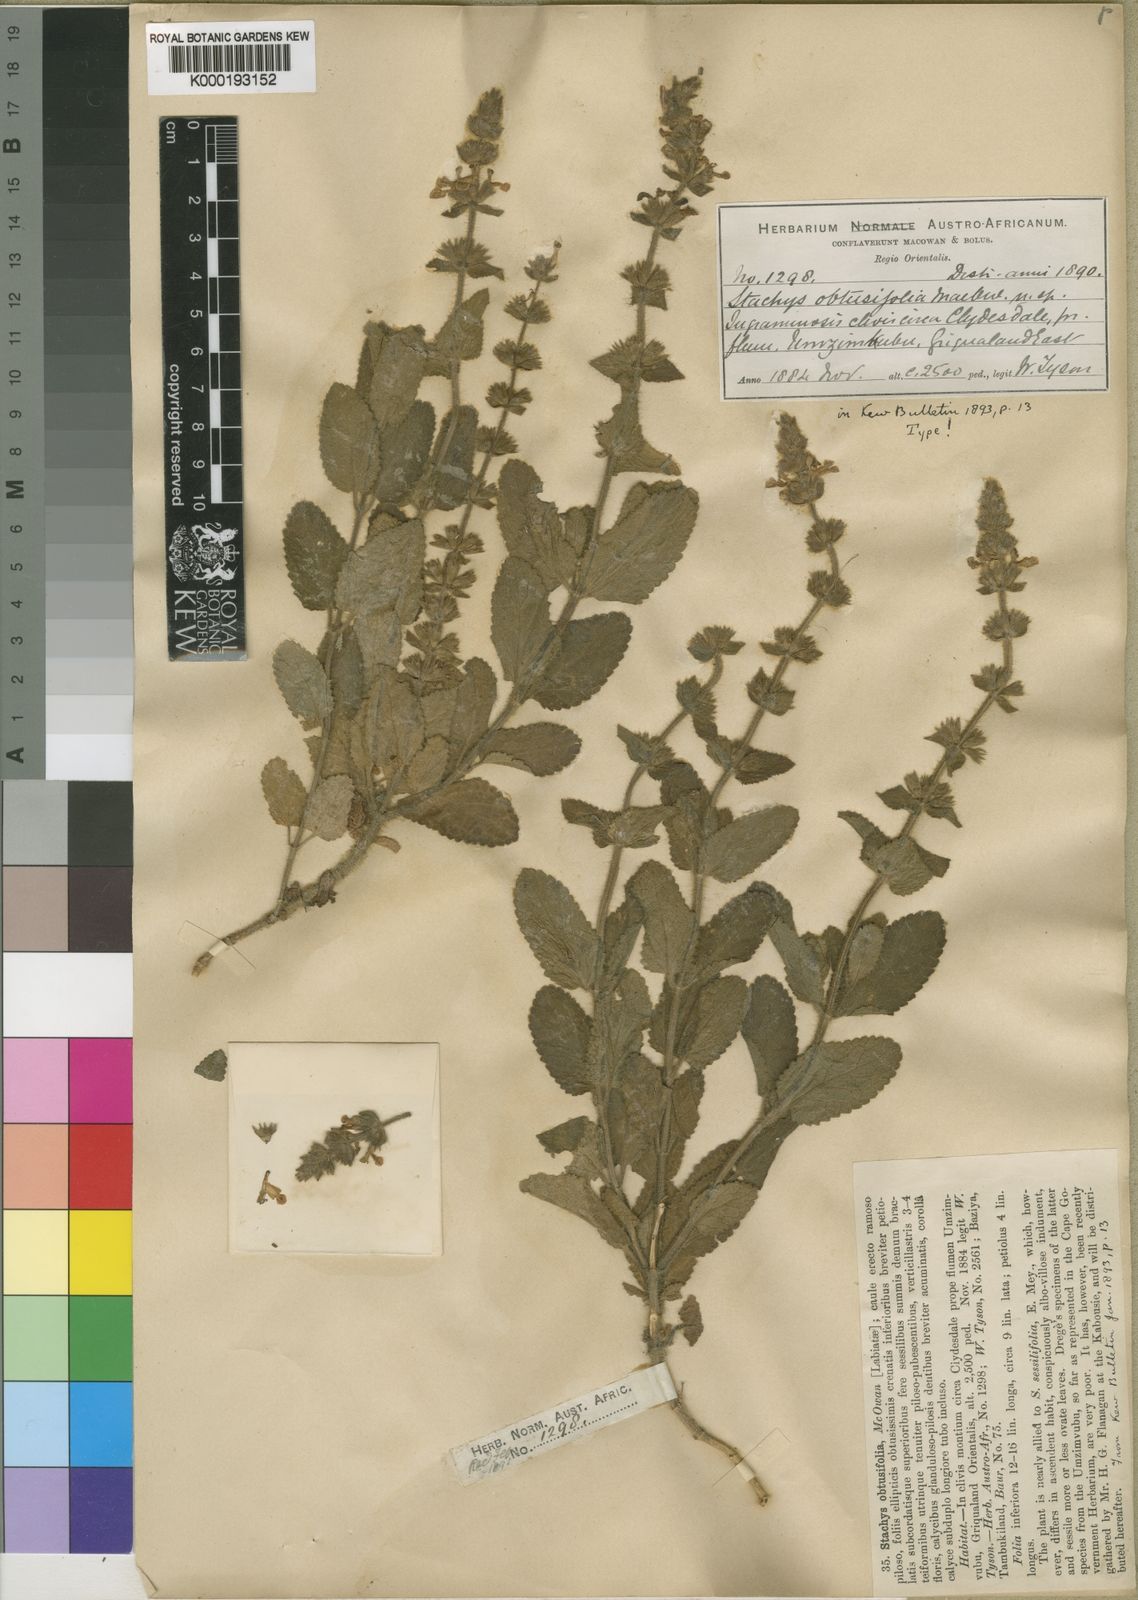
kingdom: Plantae
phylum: Tracheophyta
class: Magnoliopsida
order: Lamiales
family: Lamiaceae
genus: Stachys
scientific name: Stachys obtusifolia
